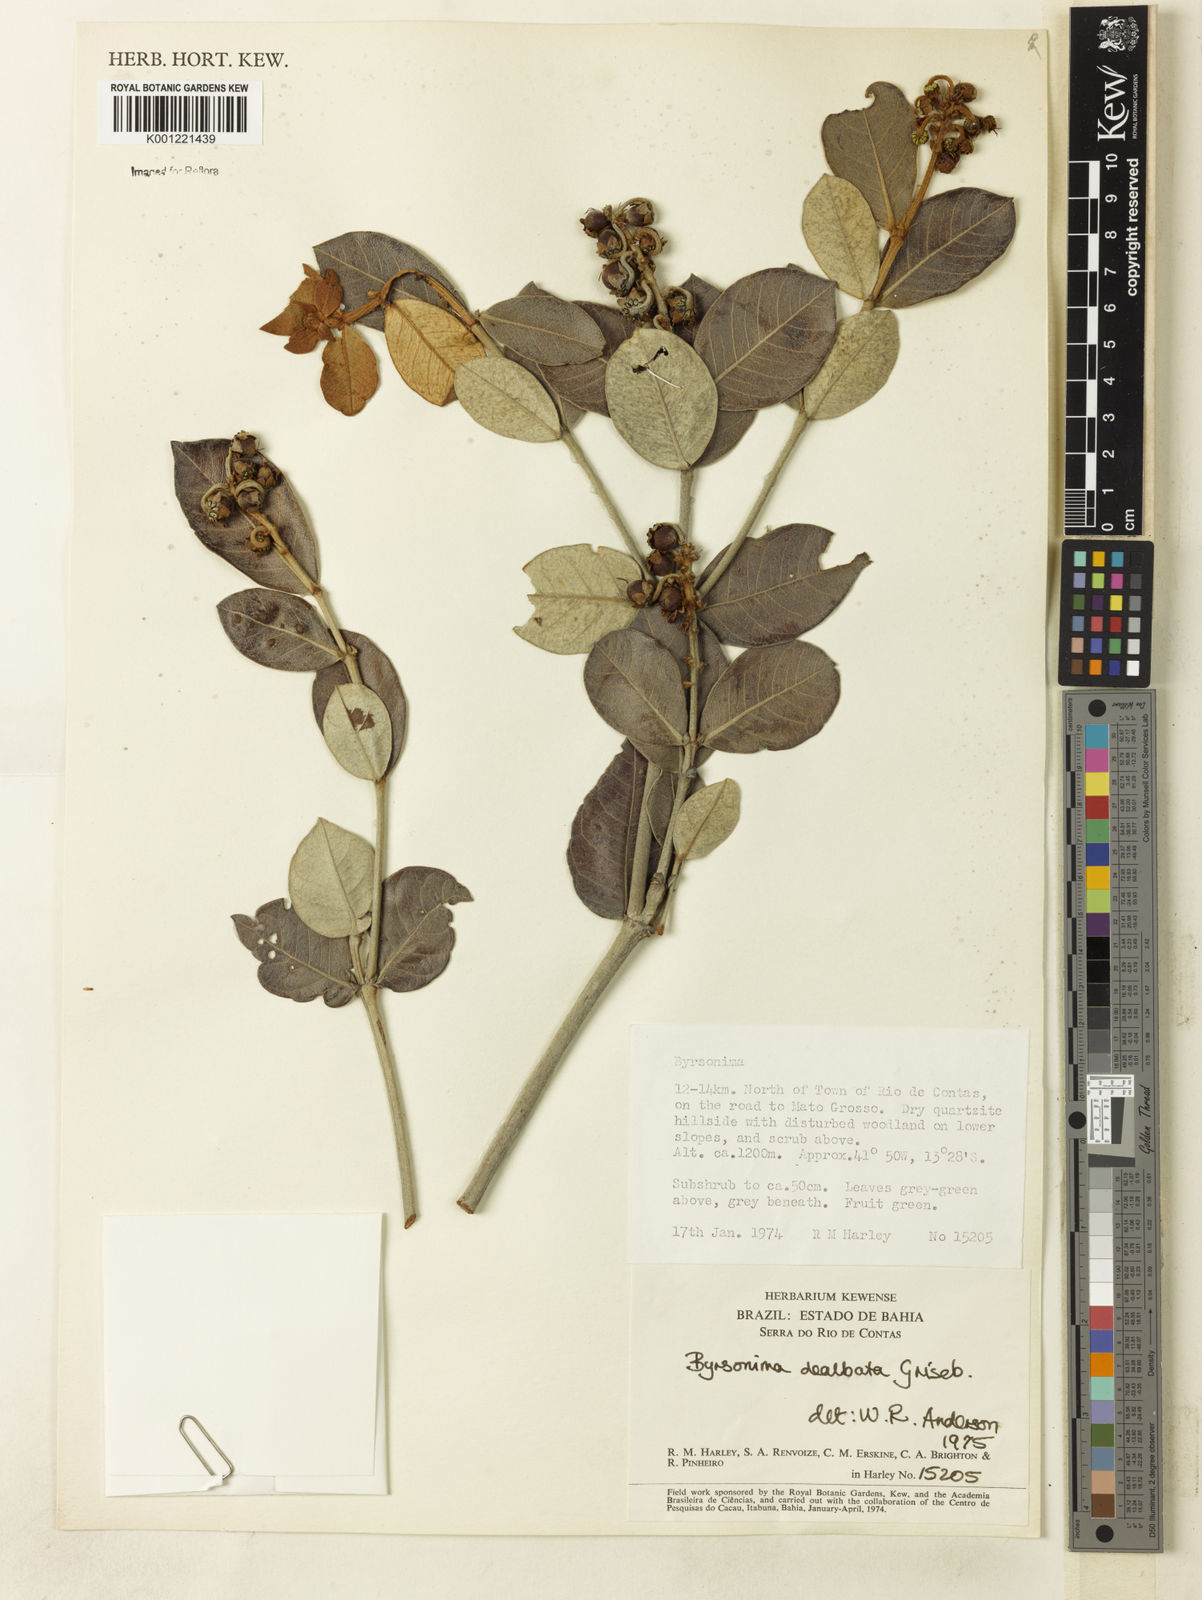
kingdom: Plantae
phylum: Tracheophyta
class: Magnoliopsida
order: Malpighiales
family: Malpighiaceae
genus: Byrsonima
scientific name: Byrsonima dealbata
